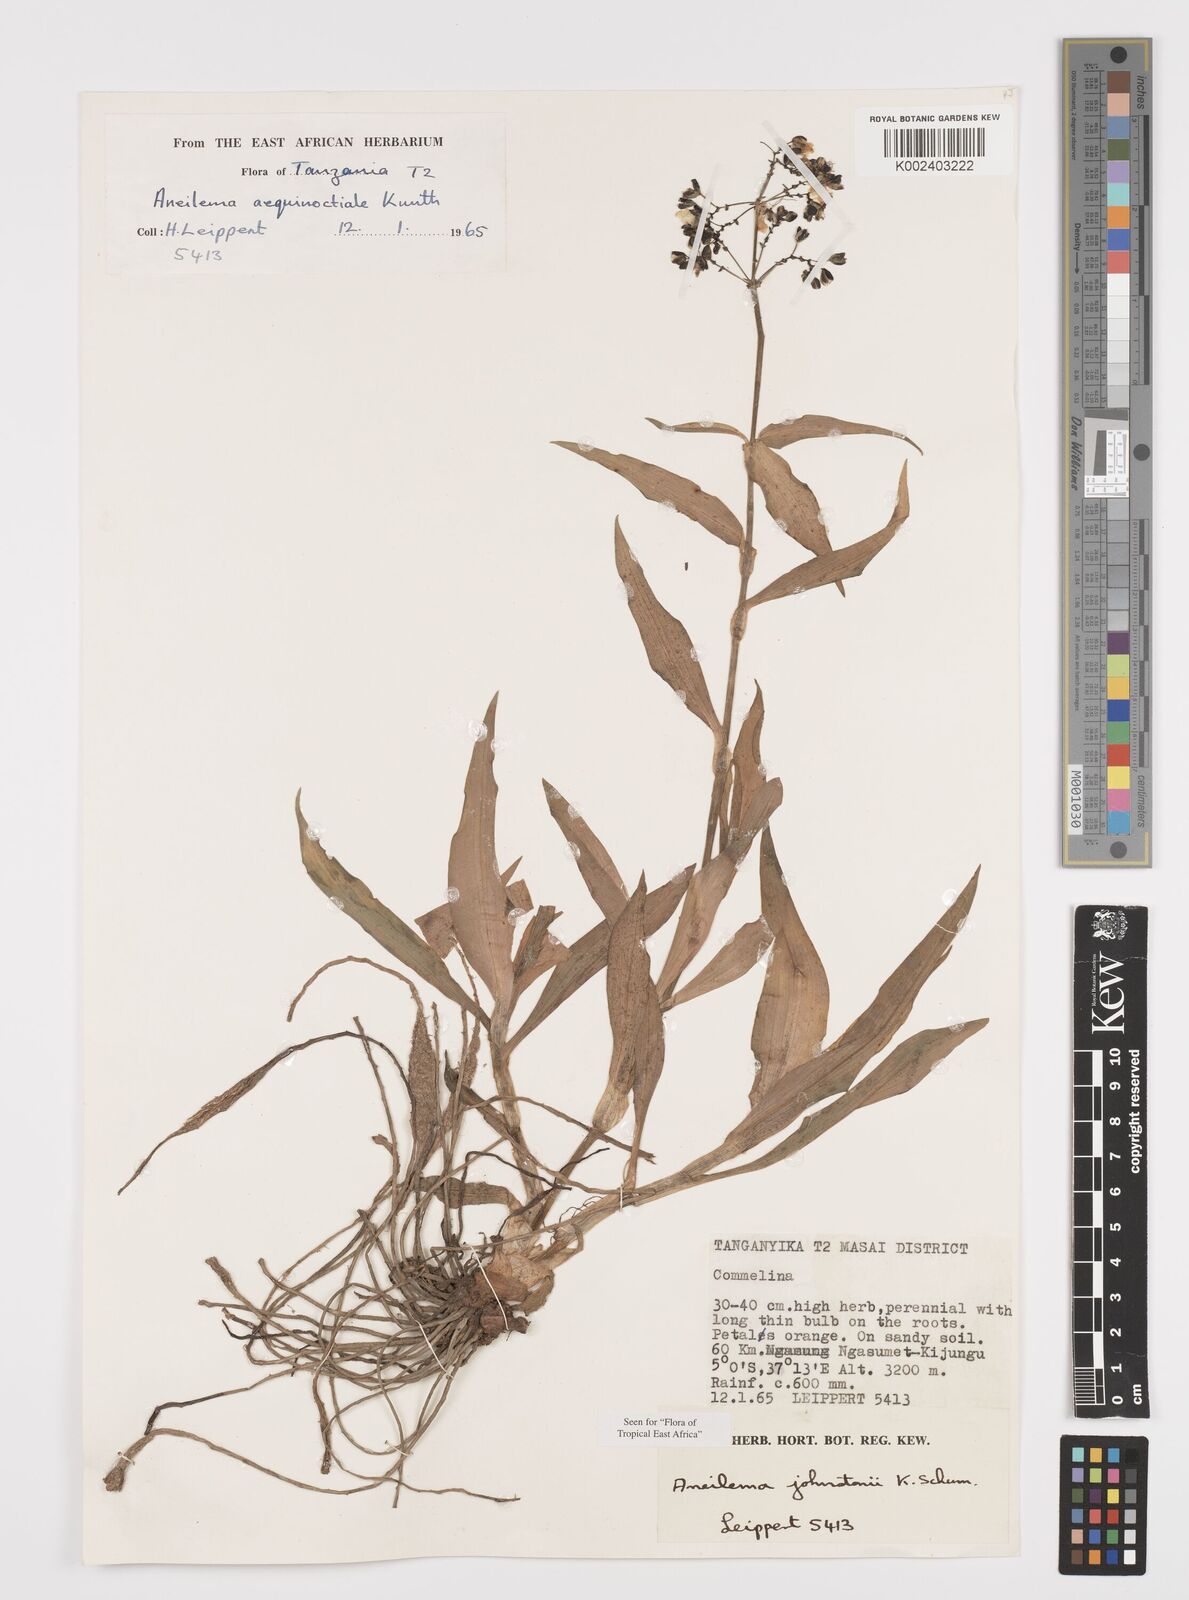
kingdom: Plantae
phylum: Tracheophyta
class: Liliopsida
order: Commelinales
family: Commelinaceae
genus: Aneilema
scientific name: Aneilema johnstonii
